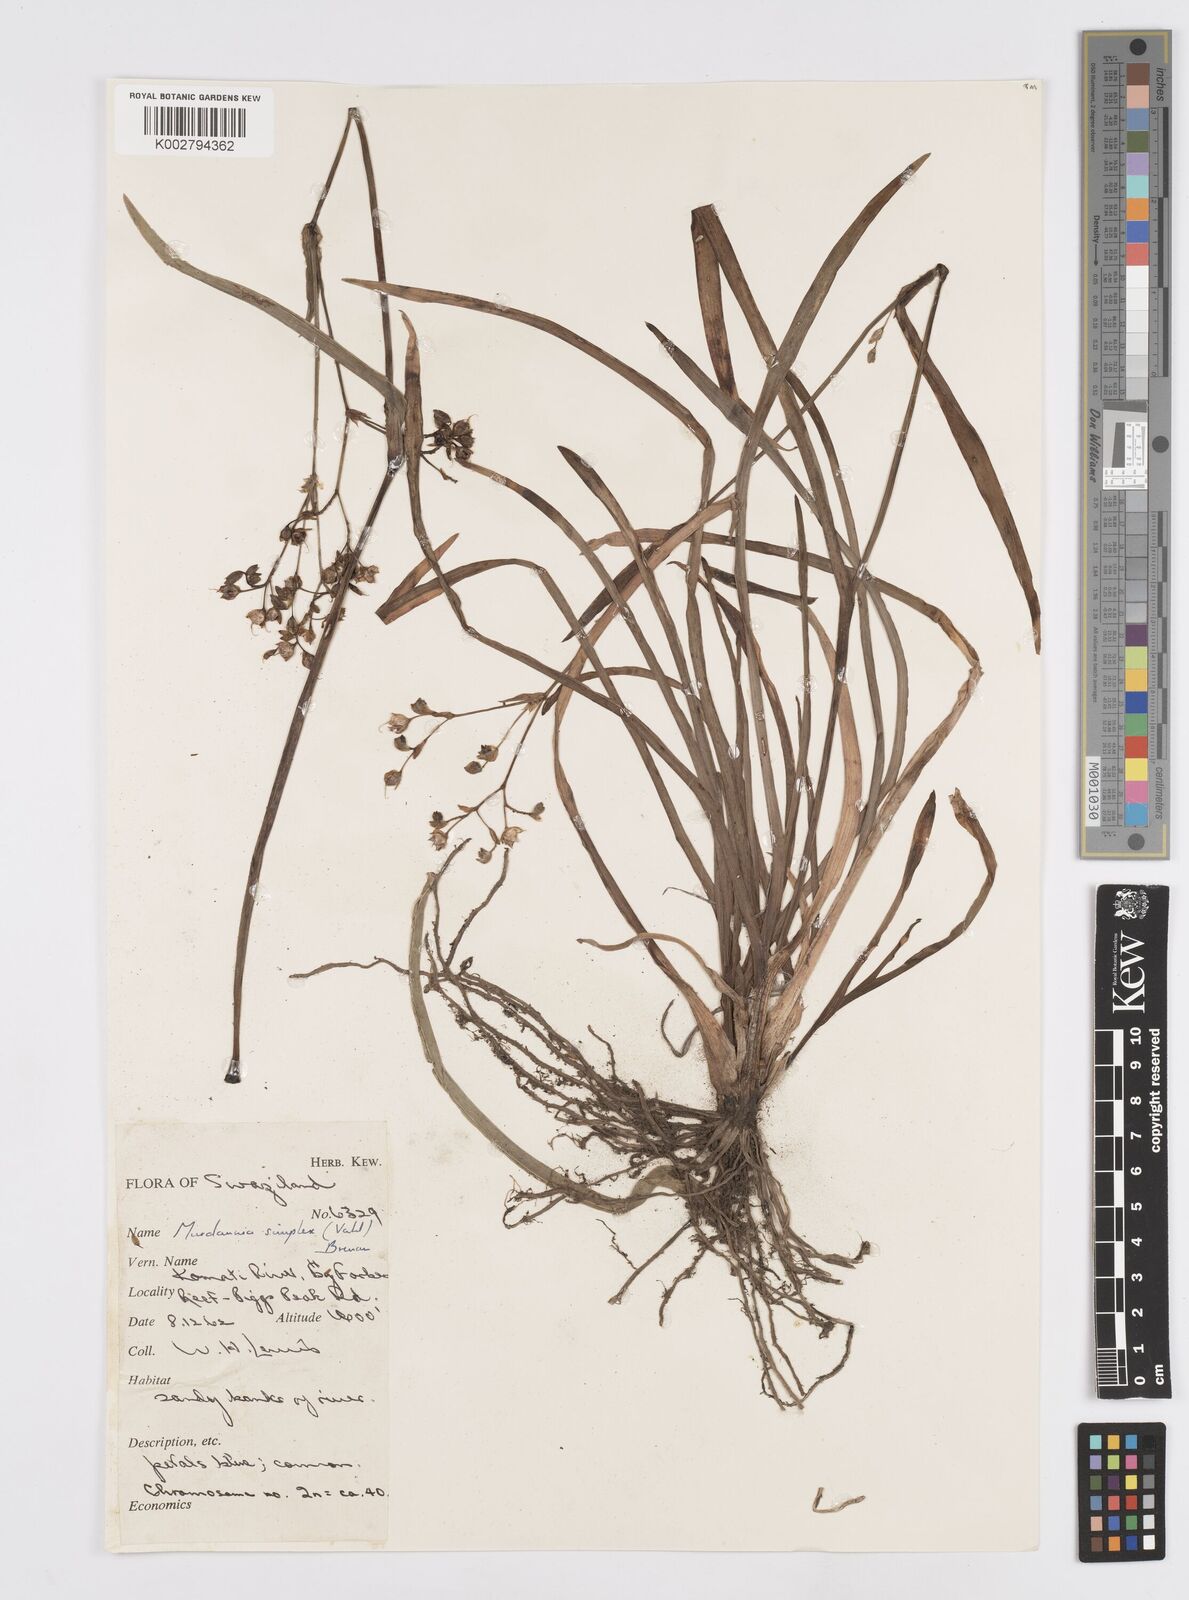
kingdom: Plantae
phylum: Tracheophyta
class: Liliopsida
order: Commelinales
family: Commelinaceae
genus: Murdannia
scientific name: Murdannia simplex
